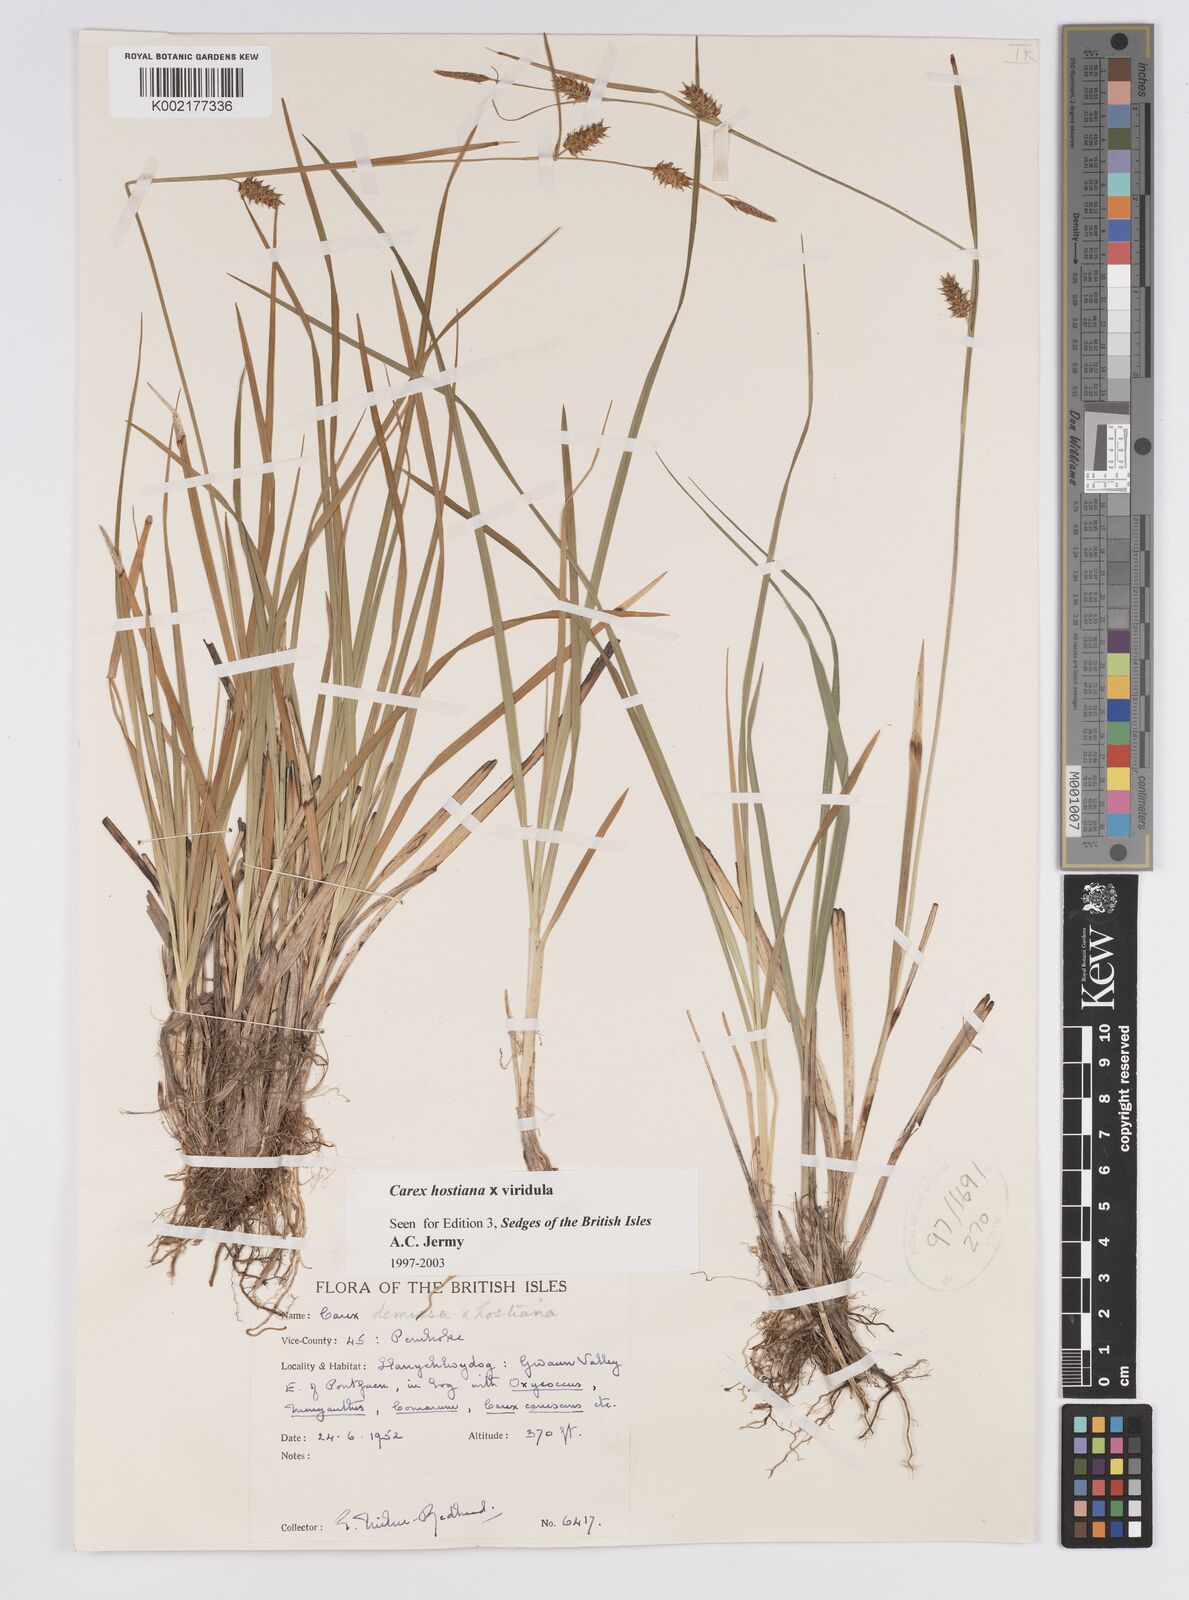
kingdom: Plantae
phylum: Tracheophyta
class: Liliopsida
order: Poales
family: Cyperaceae
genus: Carex
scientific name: Carex hostiana
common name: Tawny sedge
